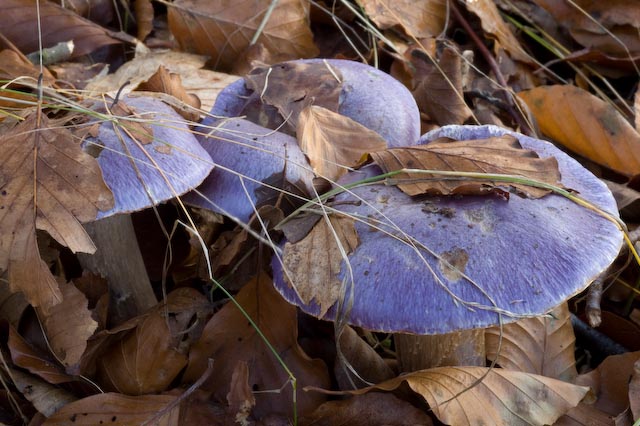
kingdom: Fungi
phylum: Basidiomycota
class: Agaricomycetes
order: Agaricales
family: Cortinariaceae
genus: Phlegmacium
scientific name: Phlegmacium eucaeruleum
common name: indigo-slørhat
